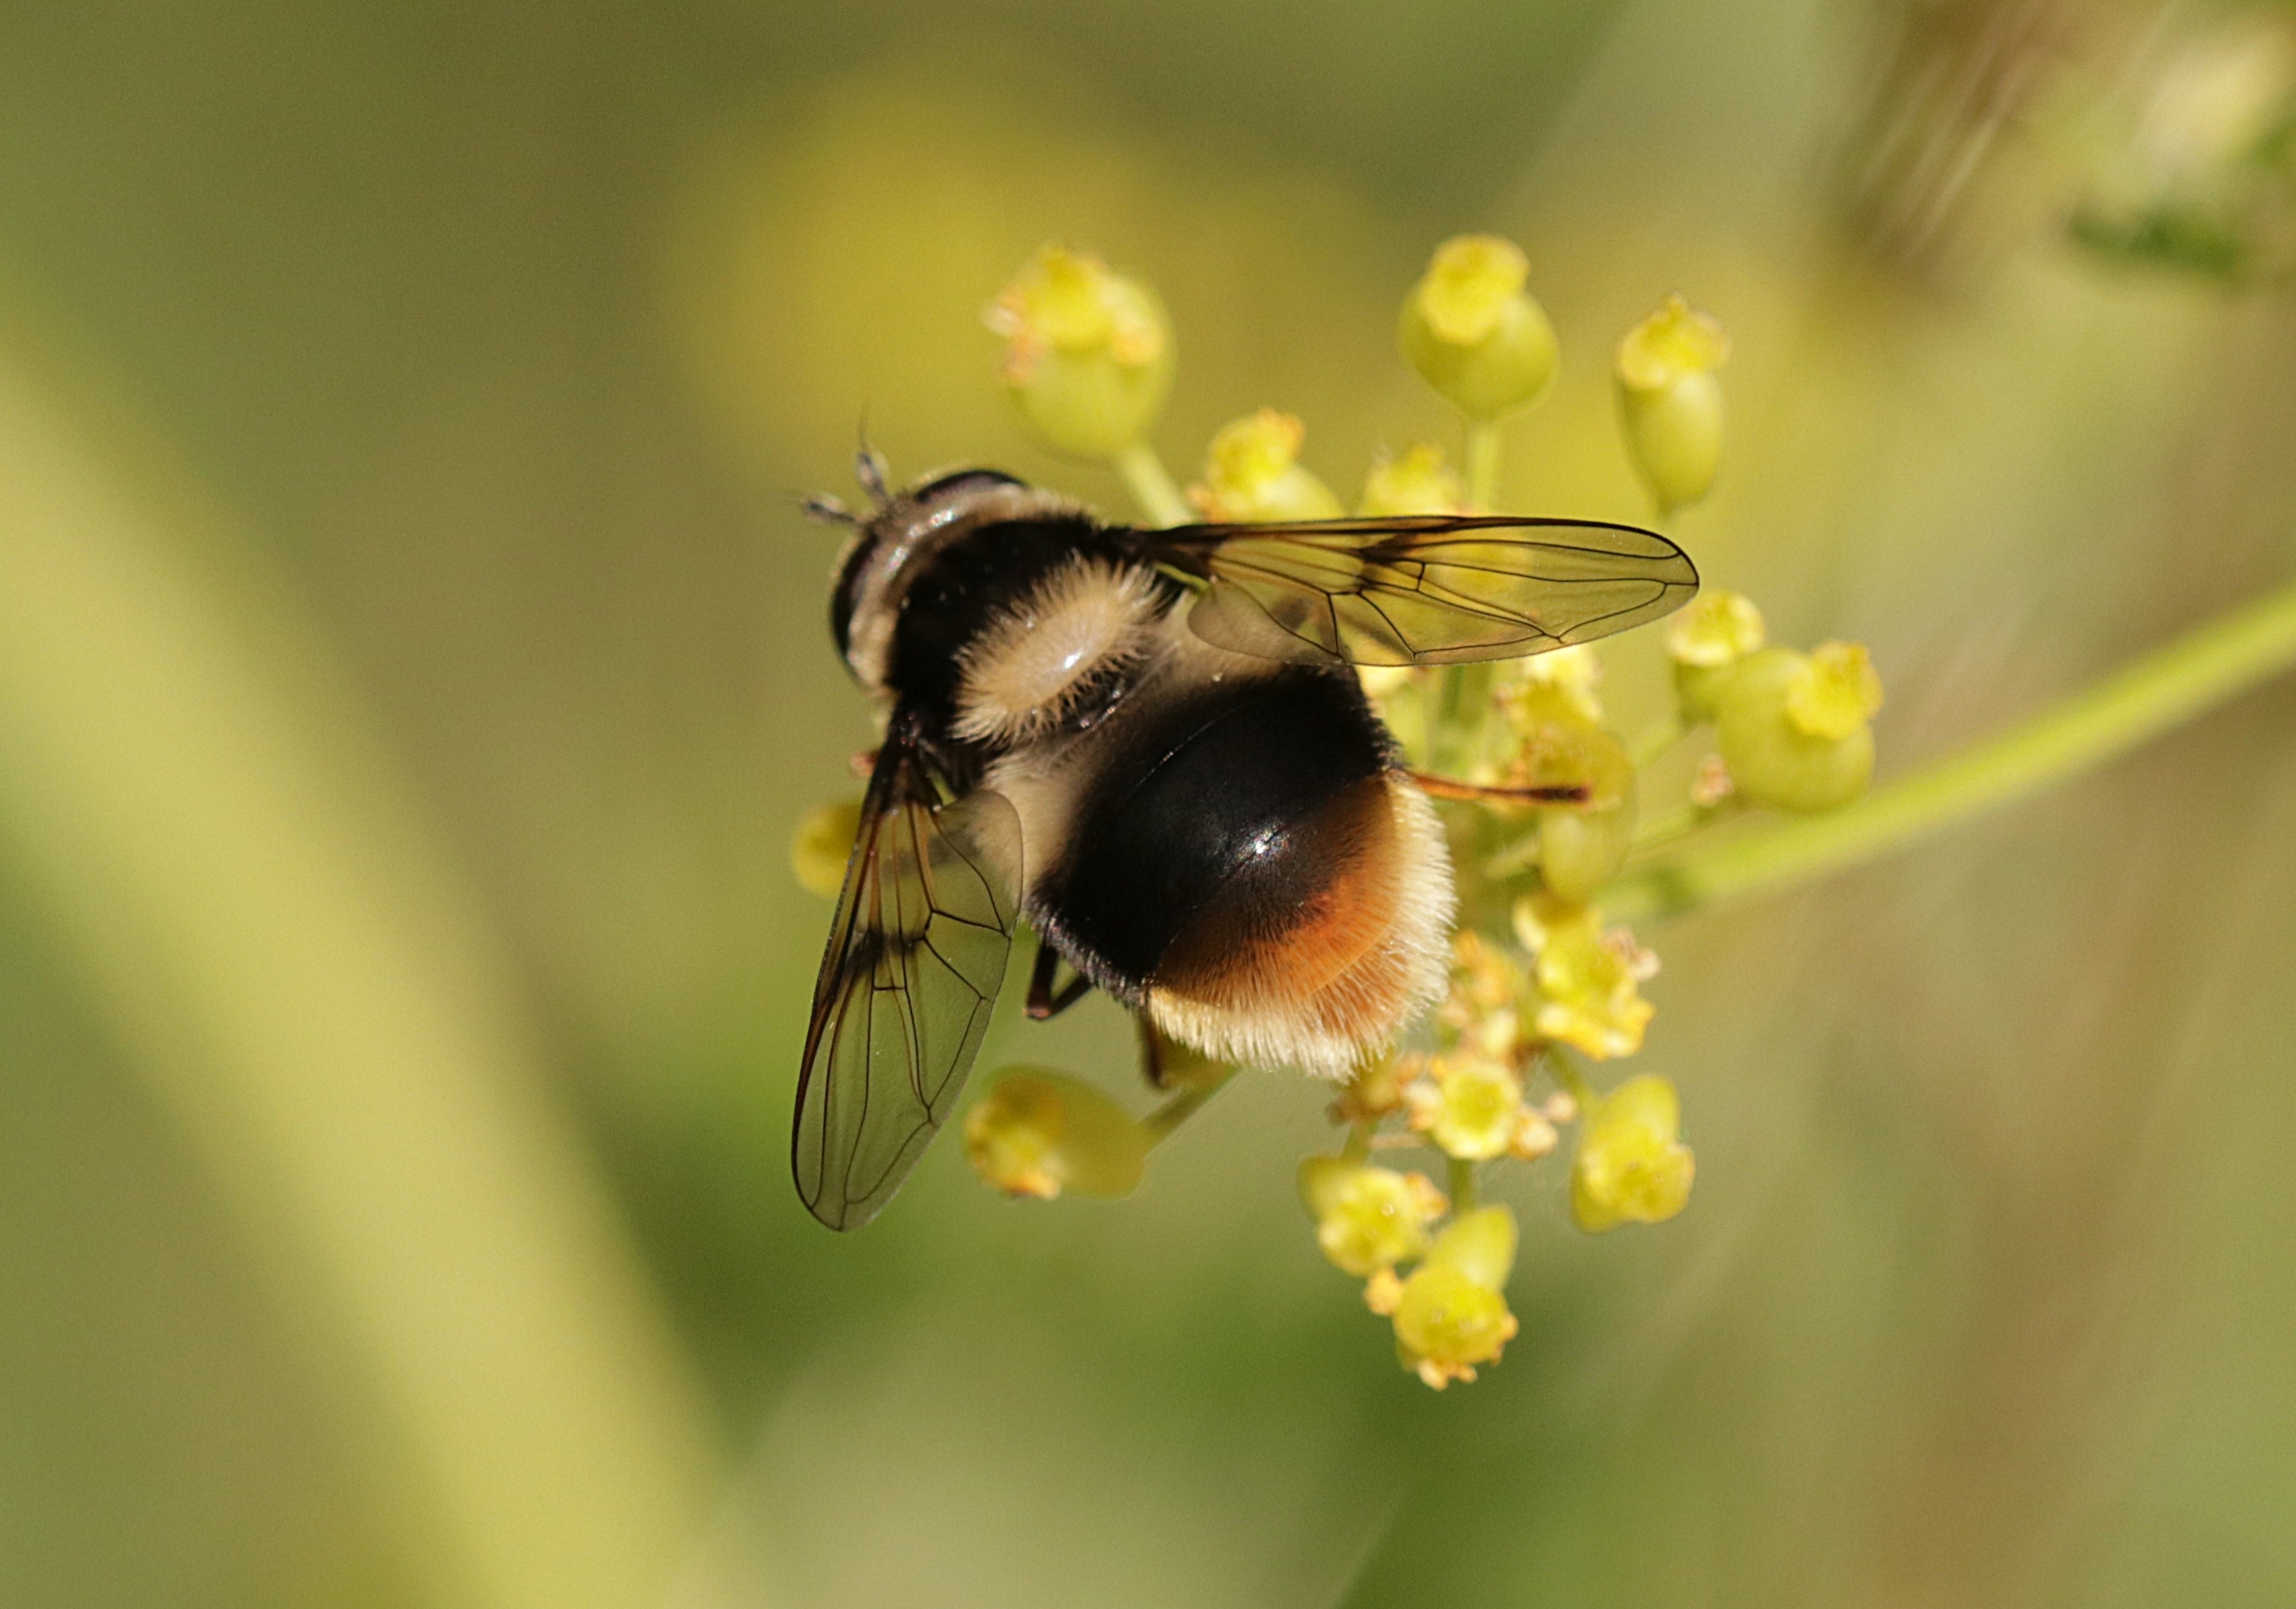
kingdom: Animalia
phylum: Arthropoda
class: Insecta
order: Diptera
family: Syrphidae
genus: Eriozona
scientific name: Eriozona syrphoides
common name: Bjerg-svirreflue
